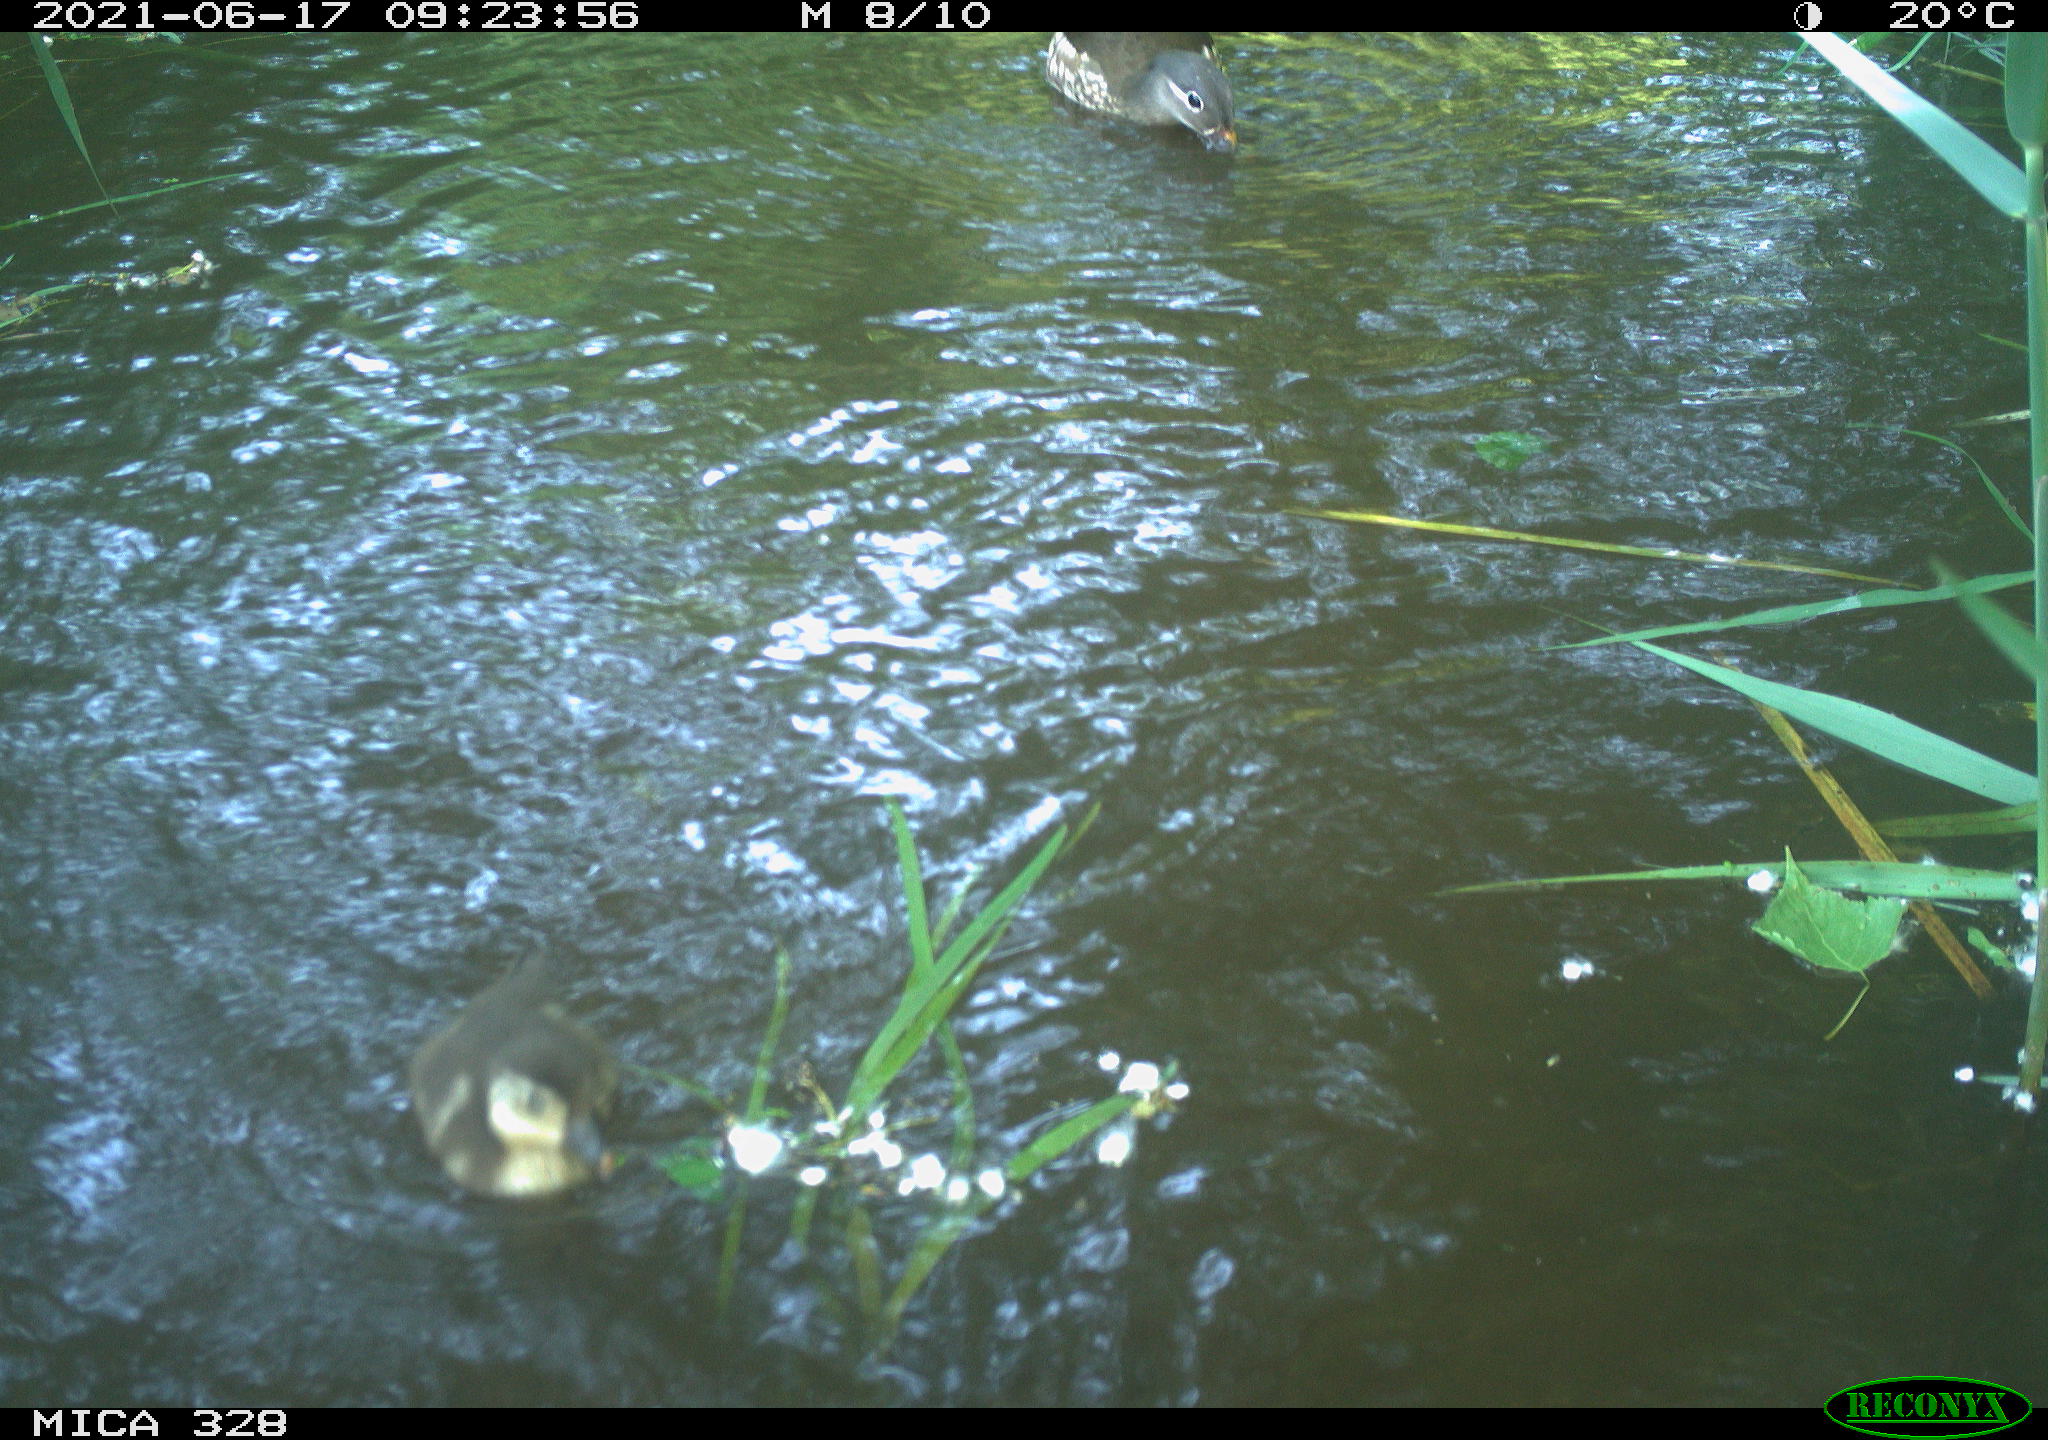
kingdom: Animalia
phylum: Chordata
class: Aves
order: Anseriformes
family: Anatidae
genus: Aix
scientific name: Aix galericulata
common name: Mandarin duck
